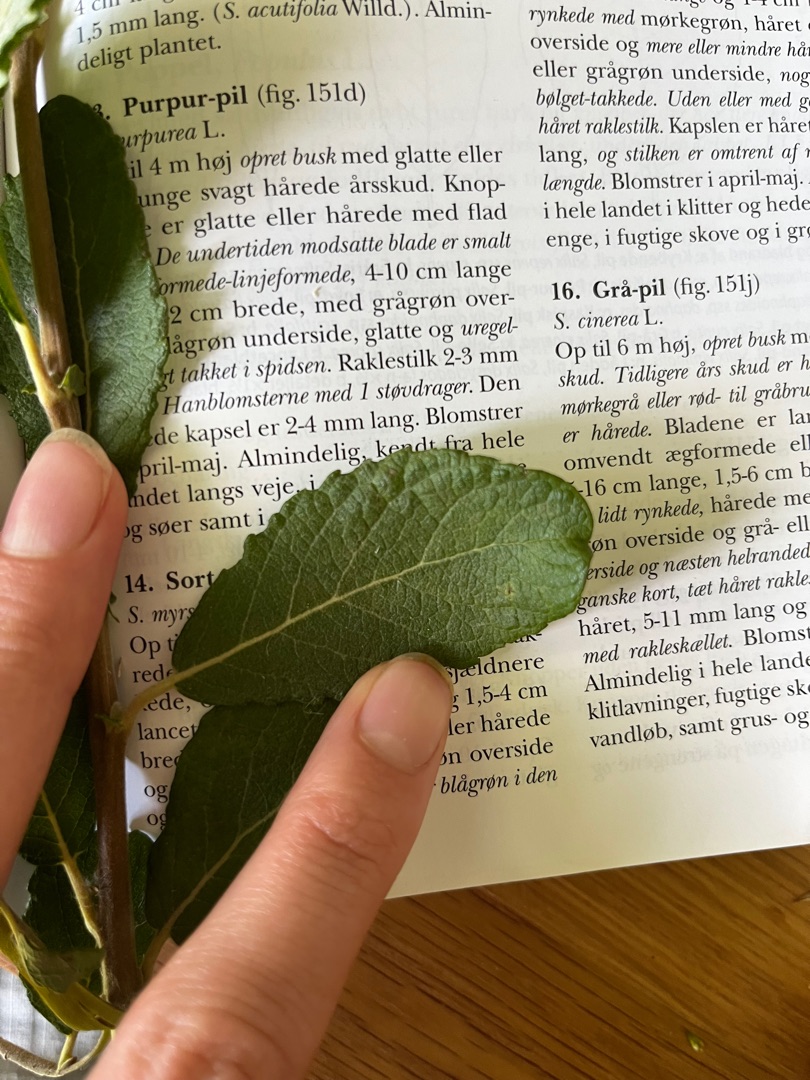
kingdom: Plantae
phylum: Tracheophyta
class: Magnoliopsida
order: Malpighiales
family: Salicaceae
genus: Salix
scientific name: Salix aurita
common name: Øret pil
